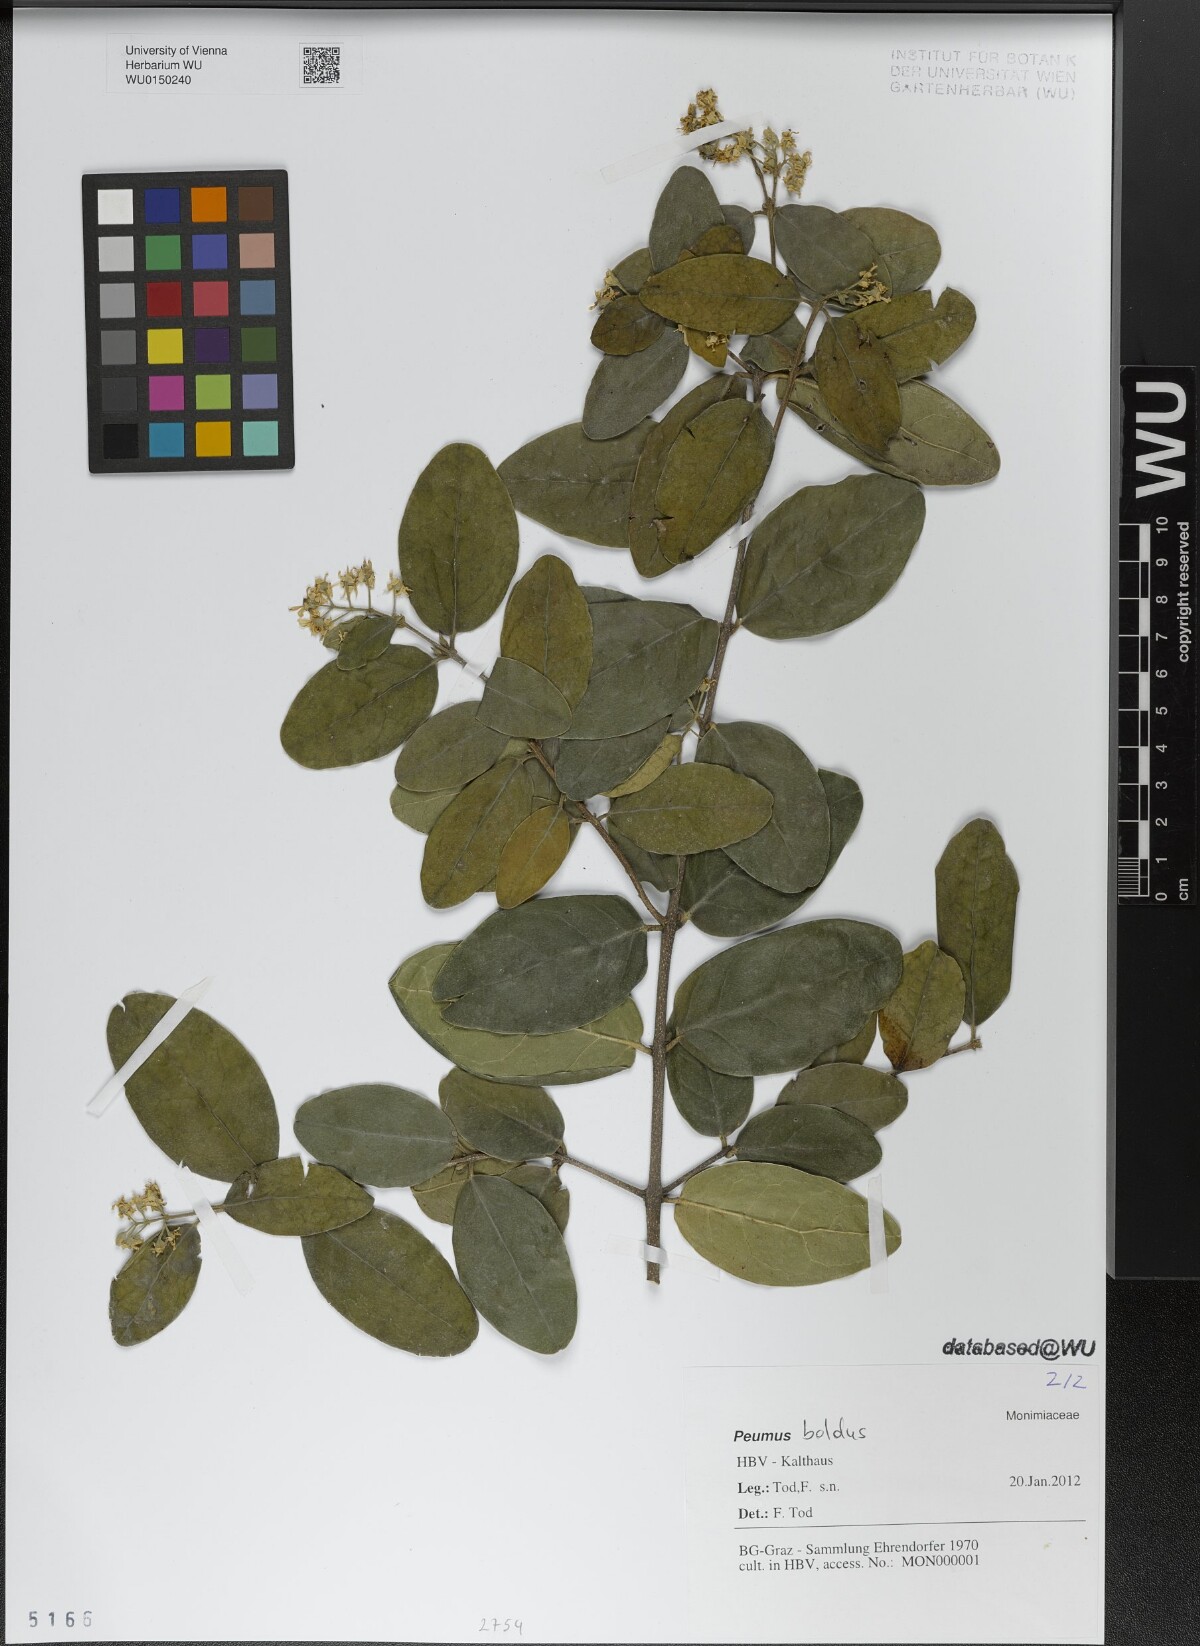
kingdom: Plantae
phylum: Tracheophyta
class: Magnoliopsida
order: Laurales
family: Monimiaceae
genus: Peumus
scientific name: Peumus boldus
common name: Boldo
